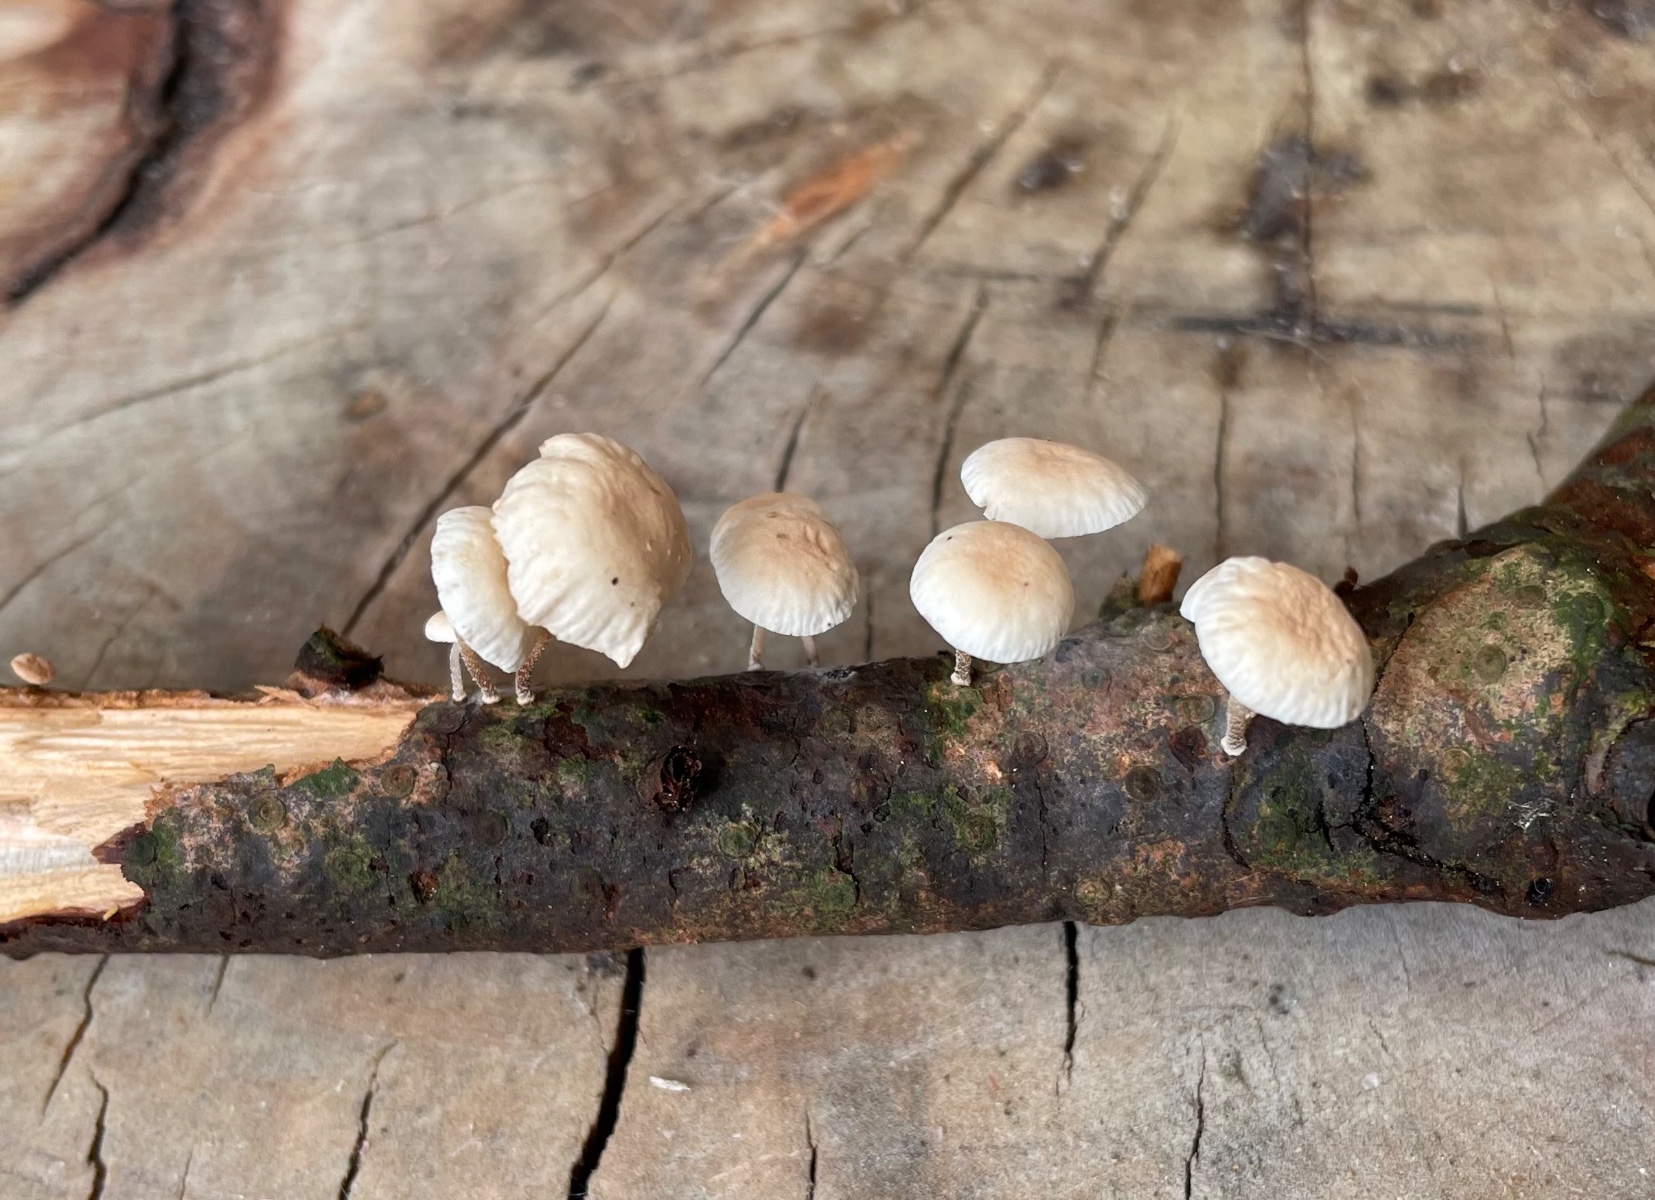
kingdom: Fungi
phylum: Basidiomycota
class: Agaricomycetes
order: Agaricales
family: Omphalotaceae
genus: Collybiopsis
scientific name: Collybiopsis ramealis
